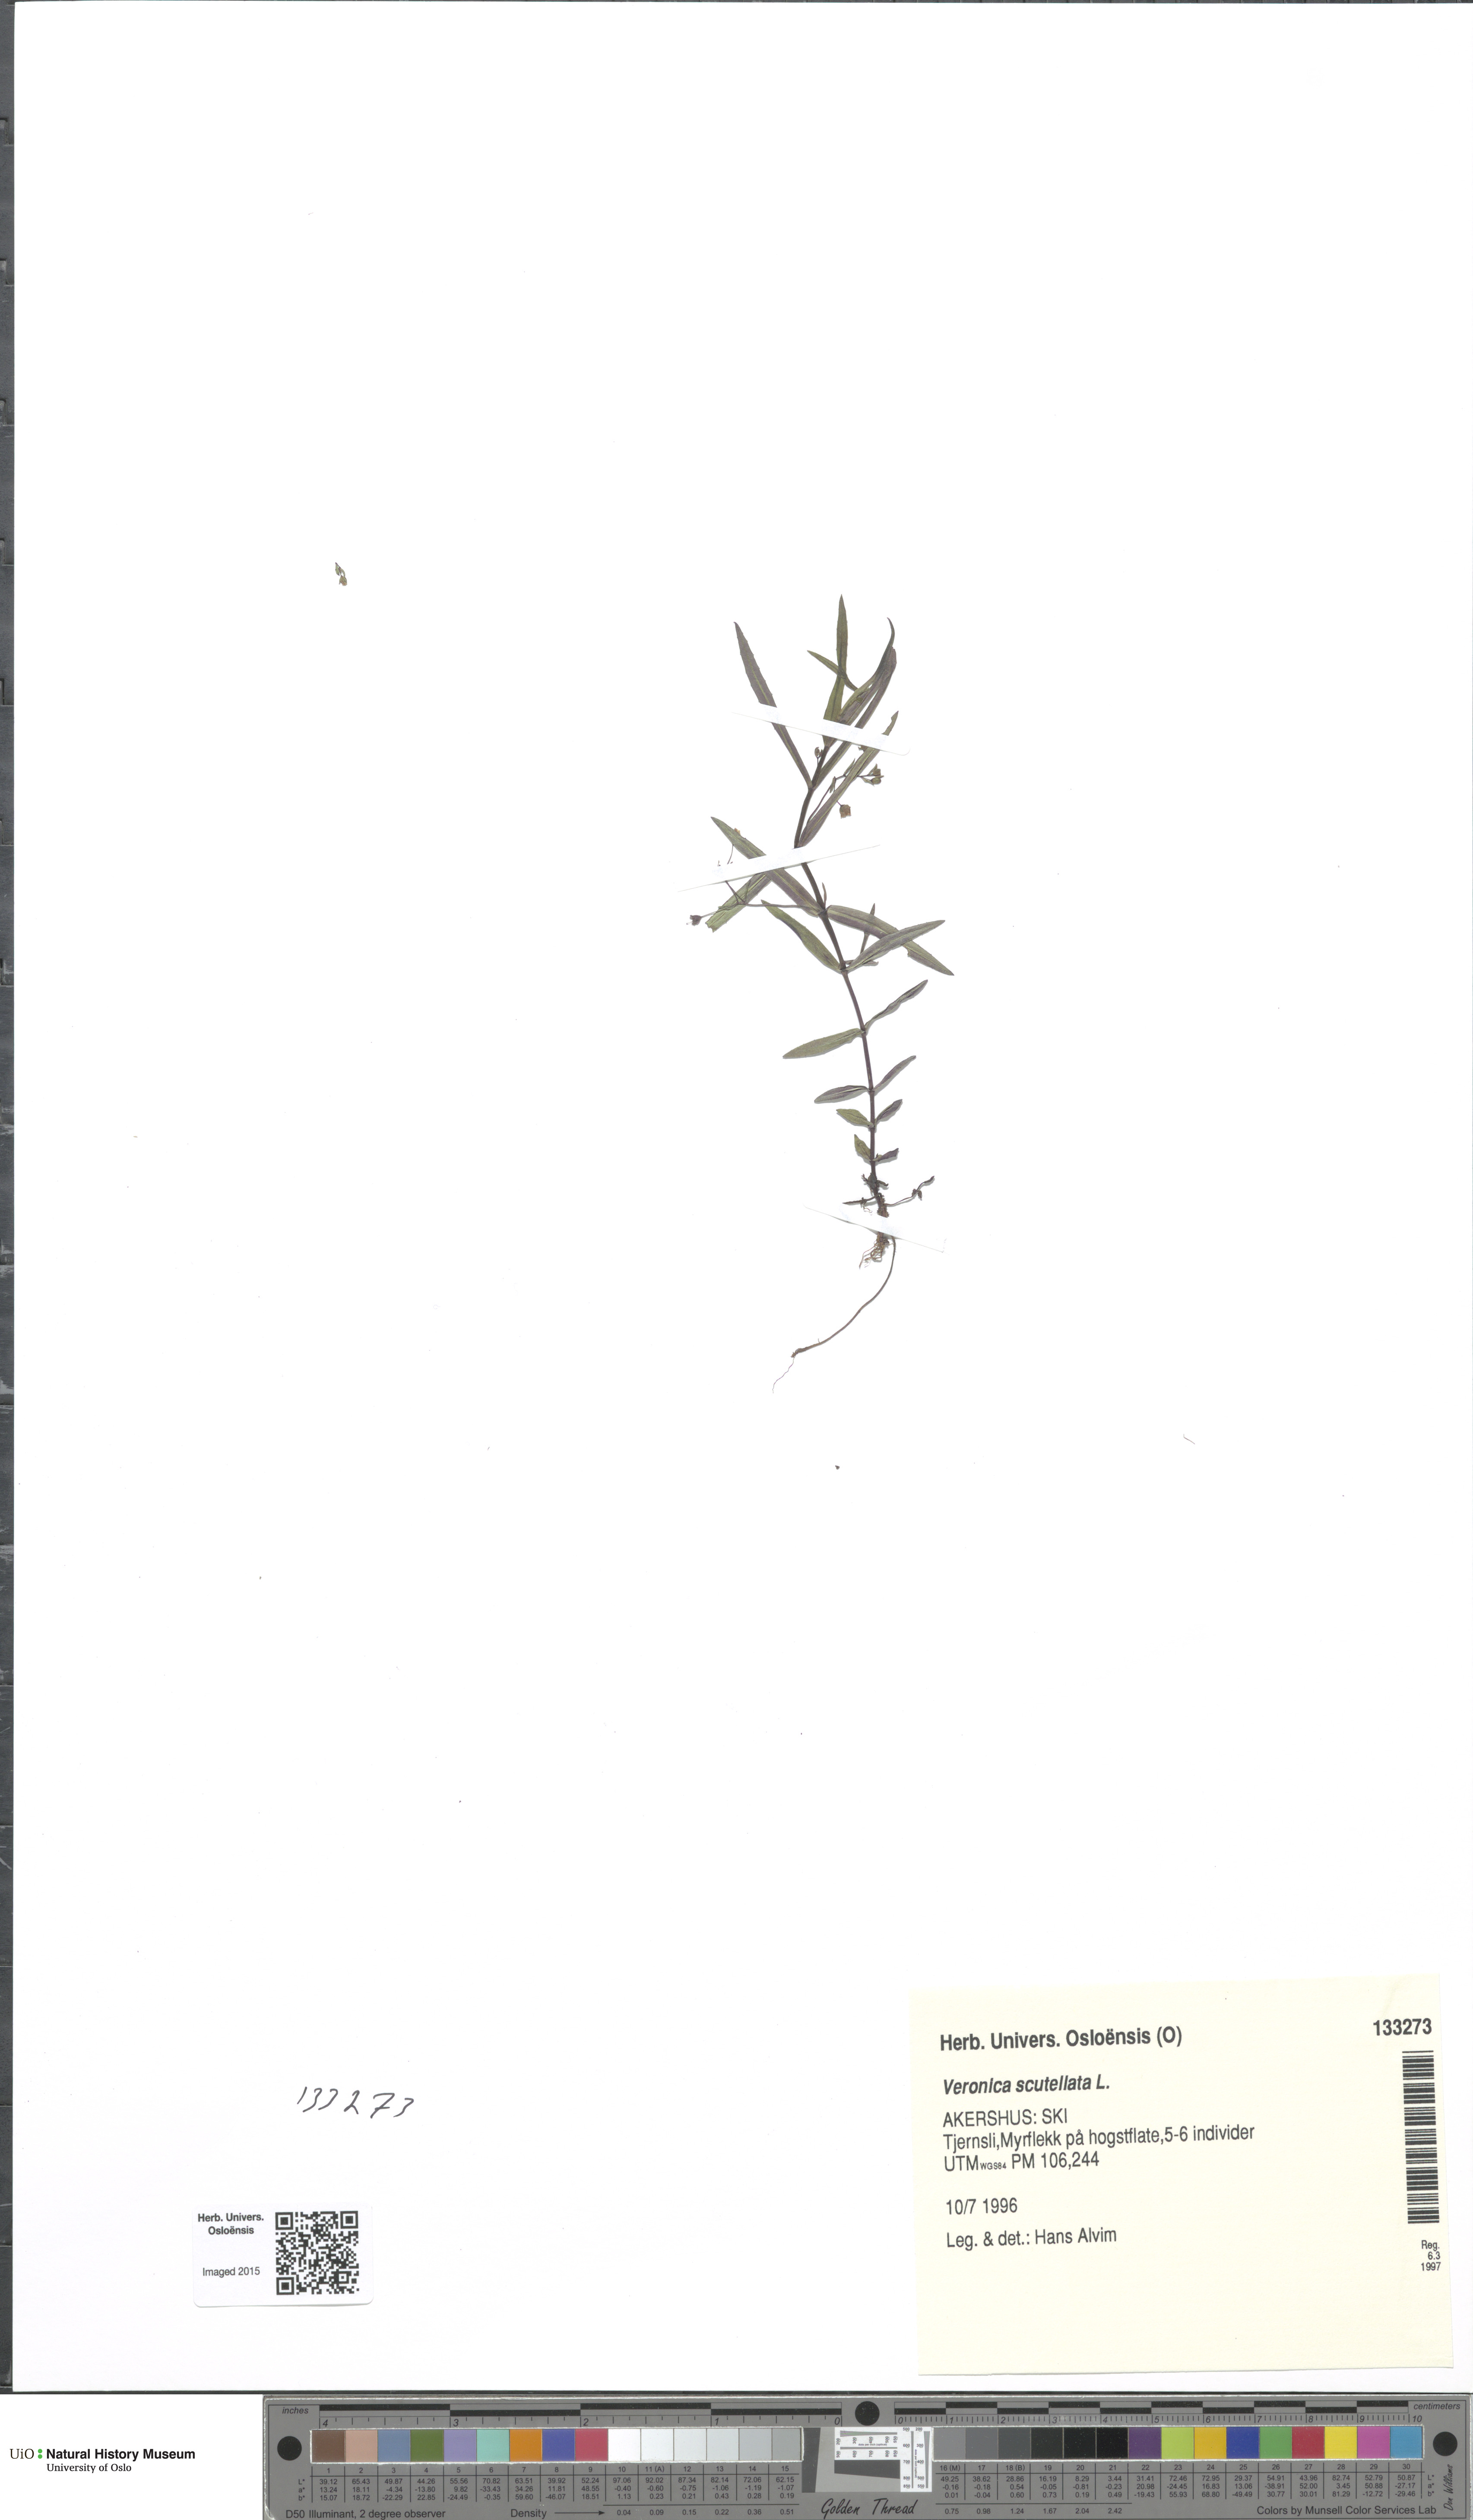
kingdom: Plantae
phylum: Tracheophyta
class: Magnoliopsida
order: Lamiales
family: Plantaginaceae
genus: Veronica
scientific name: Veronica scutellata
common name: Marsh speedwell
